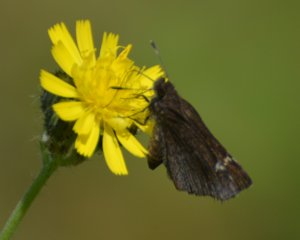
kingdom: Animalia
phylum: Arthropoda
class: Insecta
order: Lepidoptera
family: Hesperiidae
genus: Mastor
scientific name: Mastor vialis
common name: Common Roadside-Skipper
